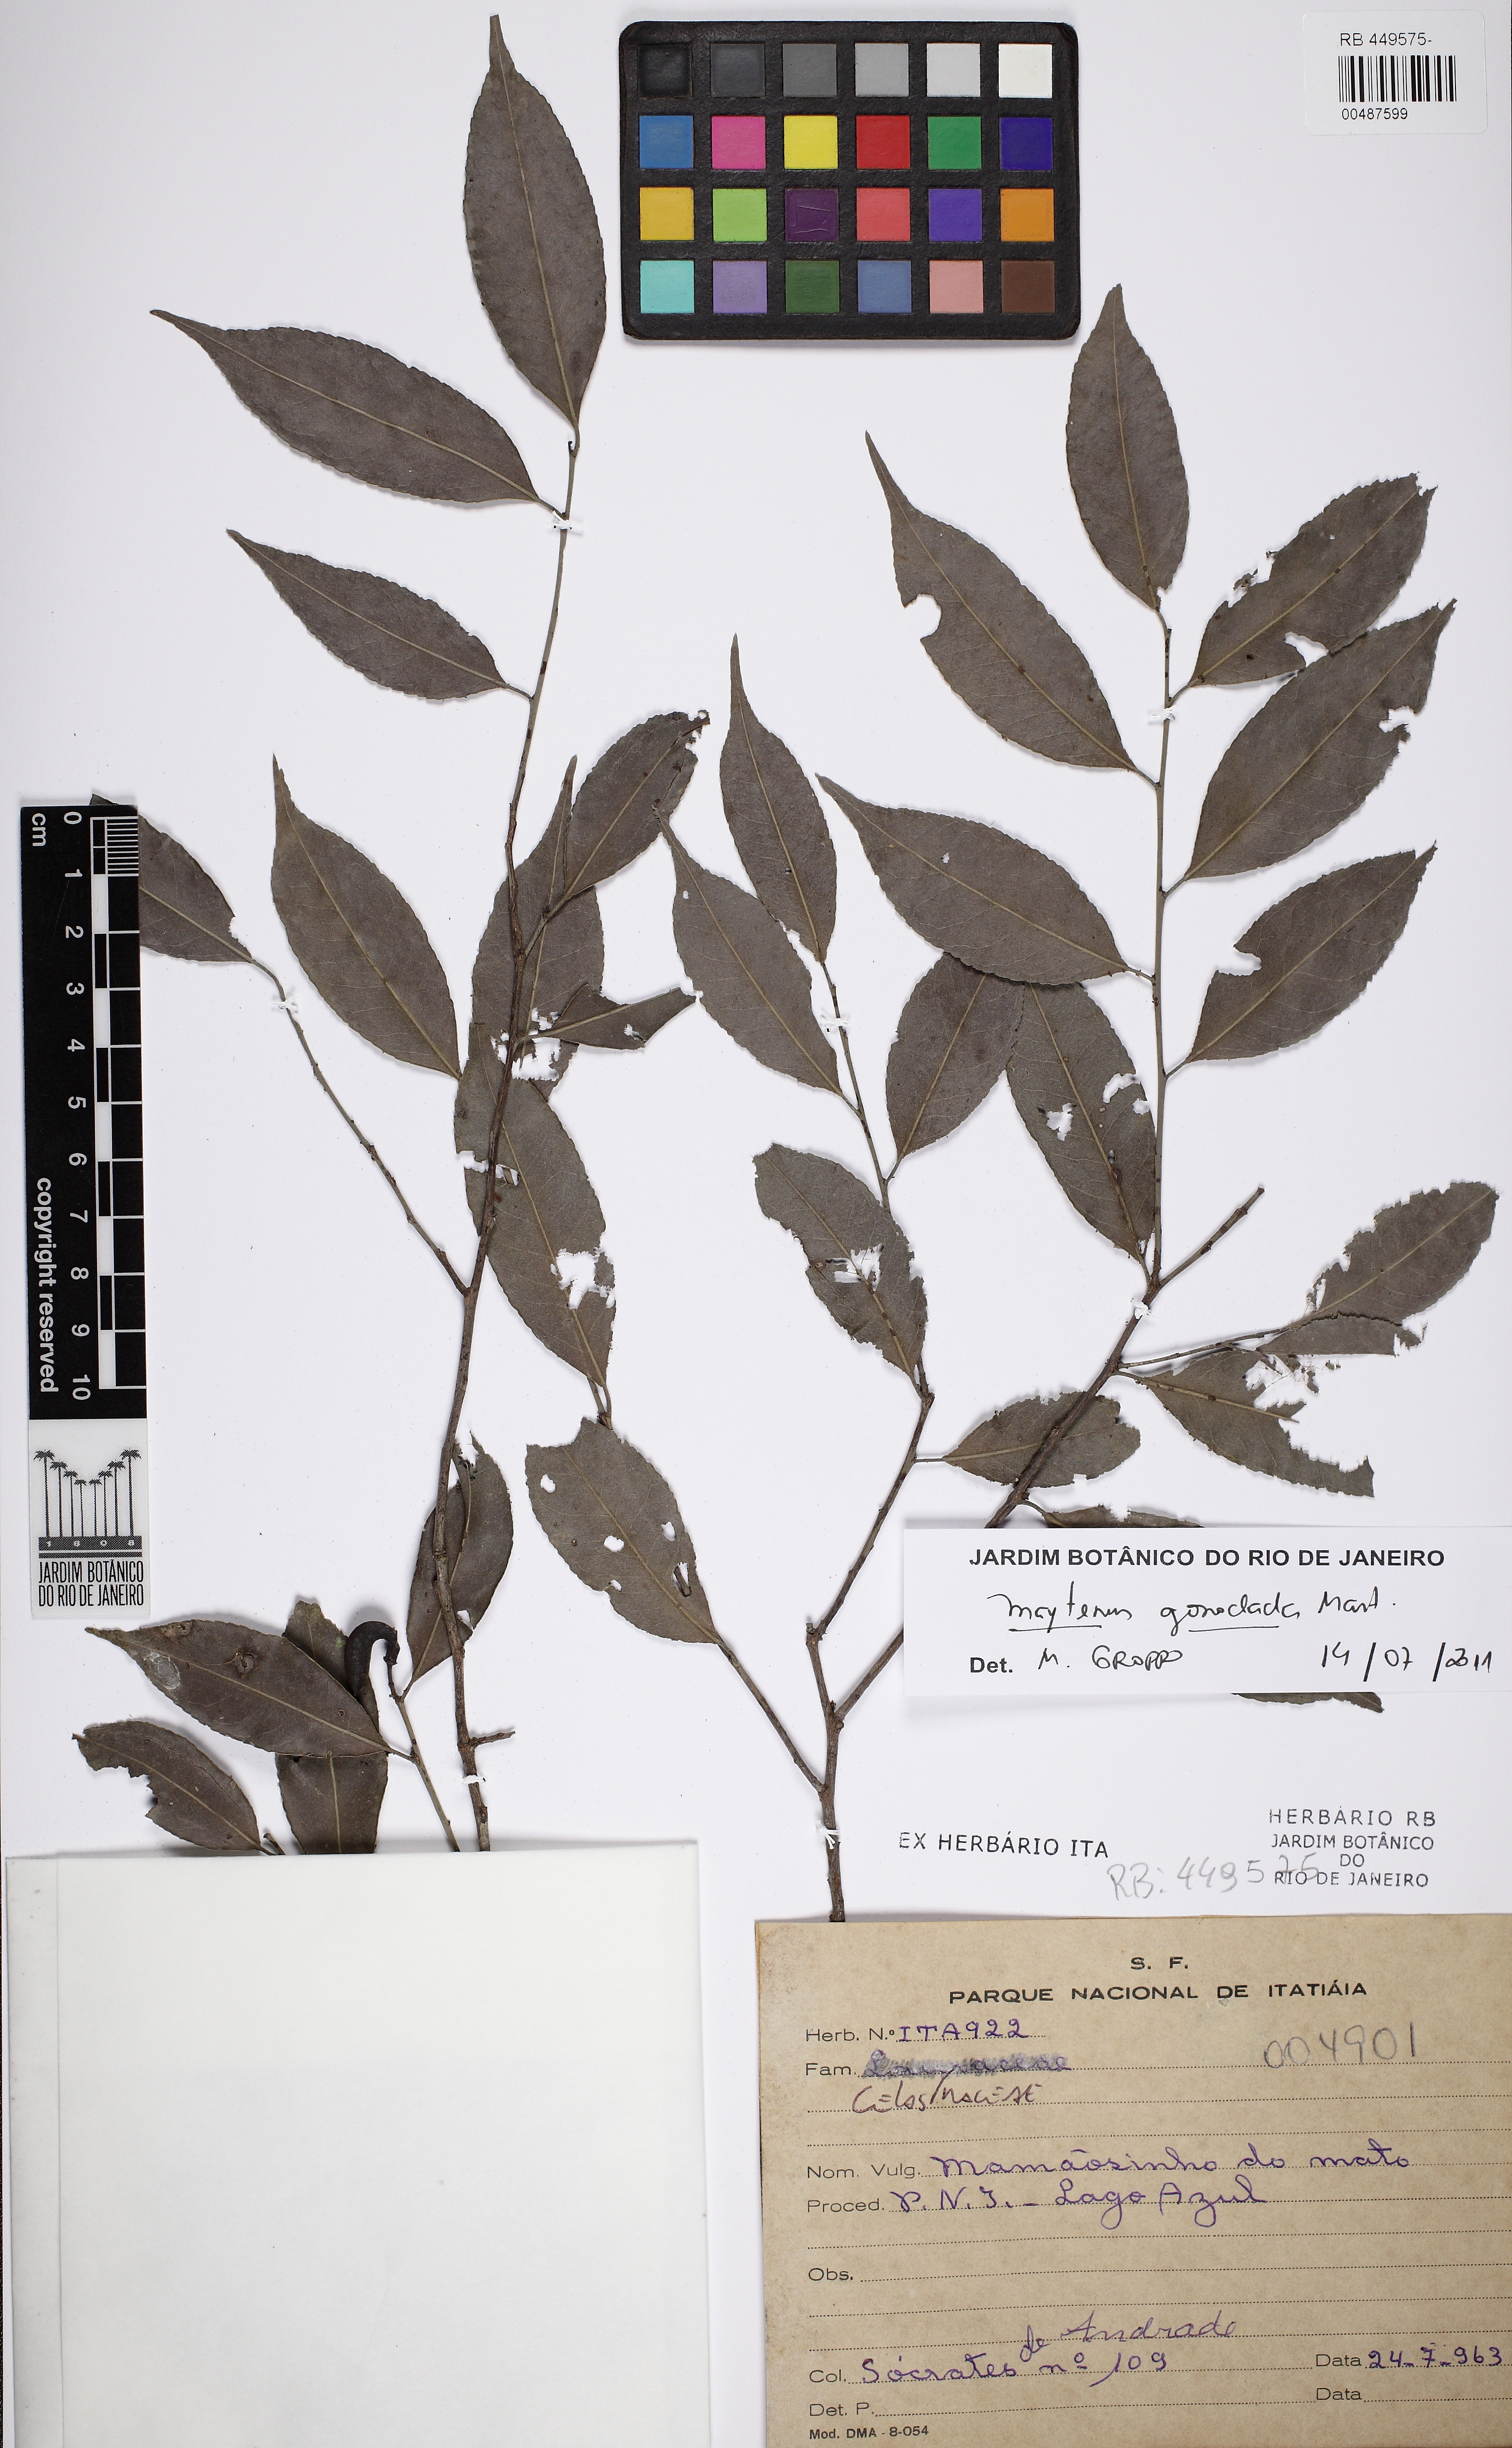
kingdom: Plantae
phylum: Tracheophyta
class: Magnoliopsida
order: Celastrales
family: Celastraceae
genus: Monteverdia
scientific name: Monteverdia gonoclada
